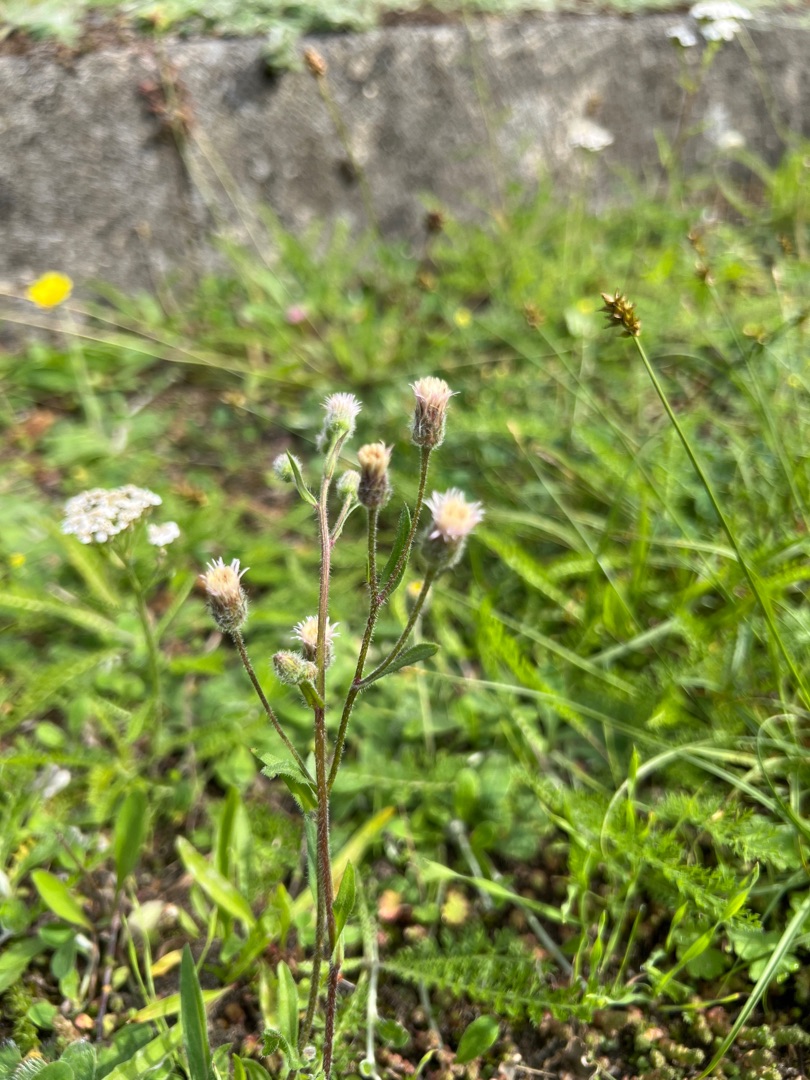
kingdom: Plantae
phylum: Tracheophyta
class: Magnoliopsida
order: Asterales
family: Asteraceae
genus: Erigeron
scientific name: Erigeron acris
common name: Bitter bakkestjerne
